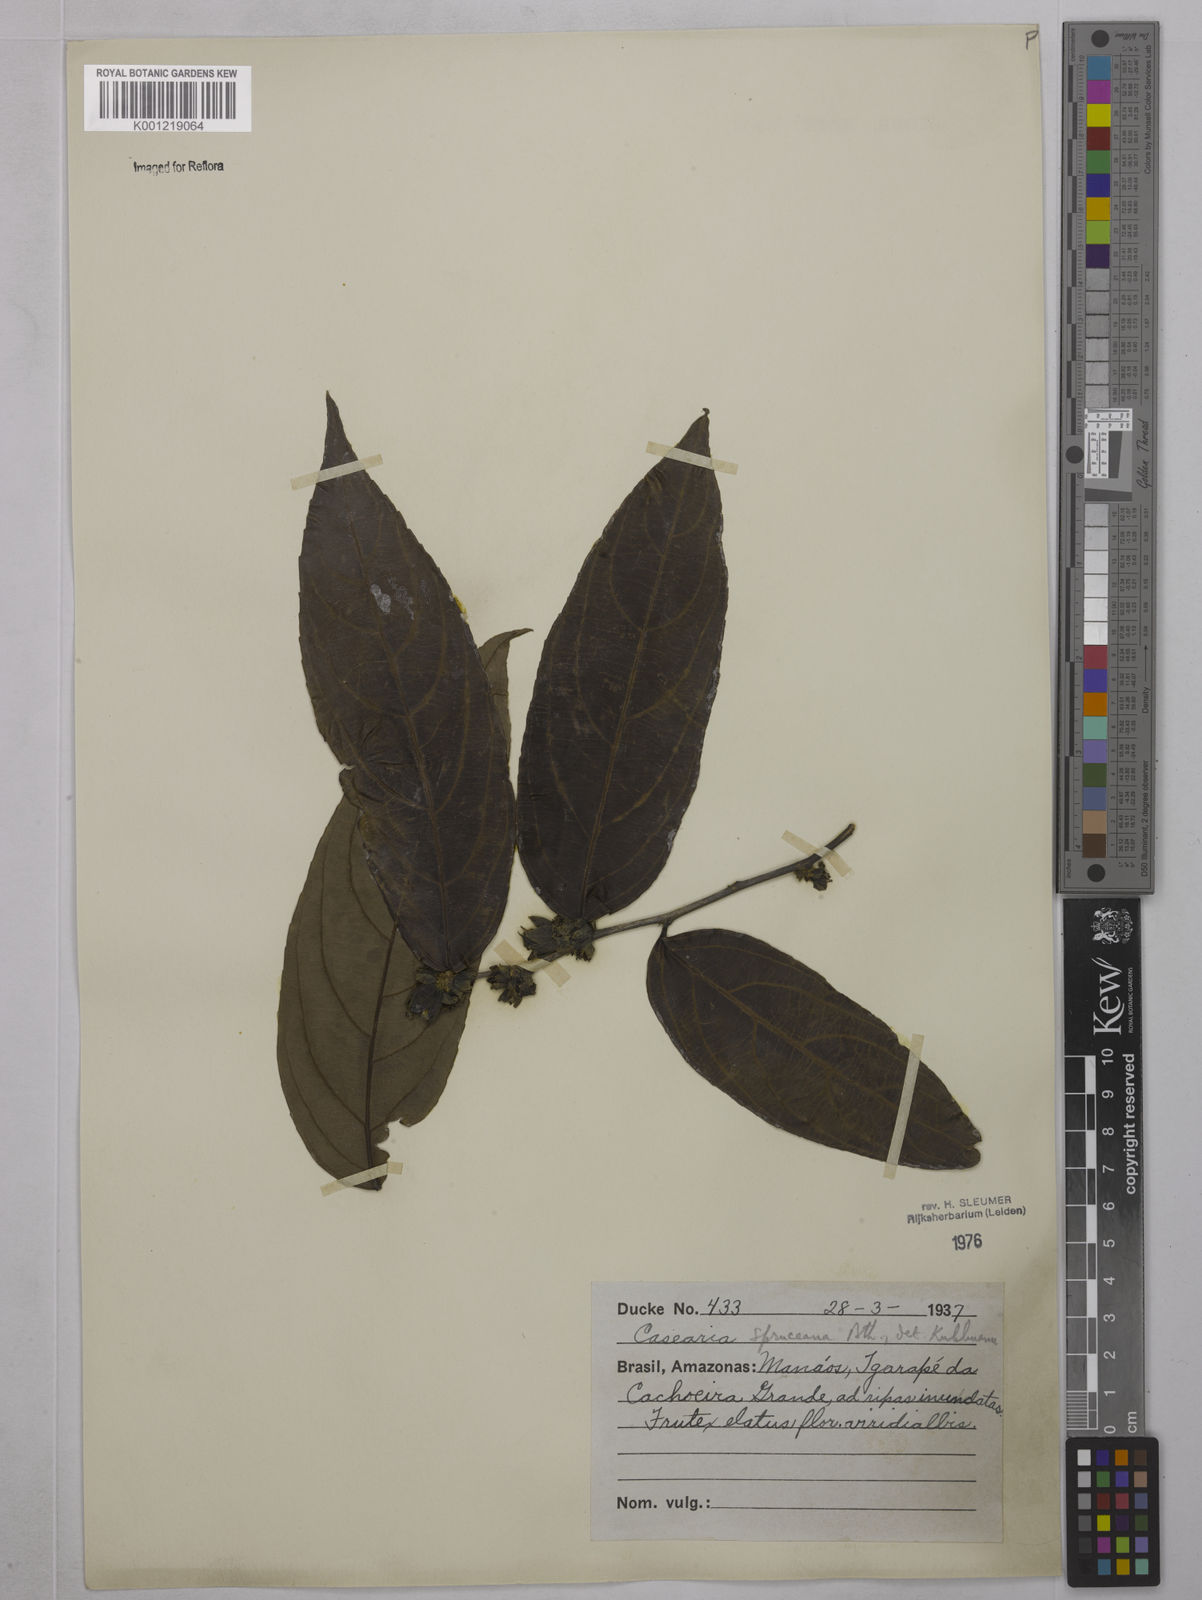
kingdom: Plantae
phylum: Tracheophyta
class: Magnoliopsida
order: Malpighiales
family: Salicaceae
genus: Piparea
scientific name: Piparea spruceana
